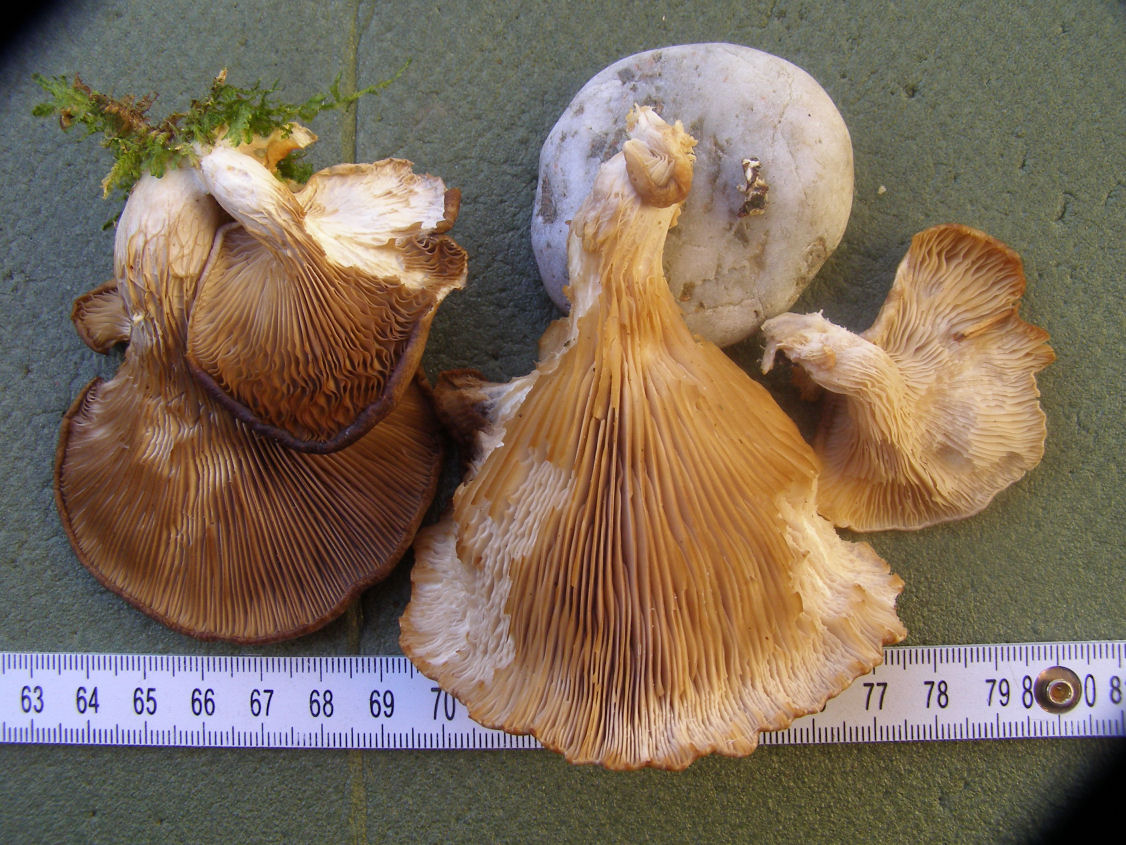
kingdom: Fungi
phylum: Basidiomycota
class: Agaricomycetes
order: Agaricales
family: Pleurotaceae
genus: Pleurotus
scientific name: Pleurotus cornucopiae
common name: tragt-østershat
